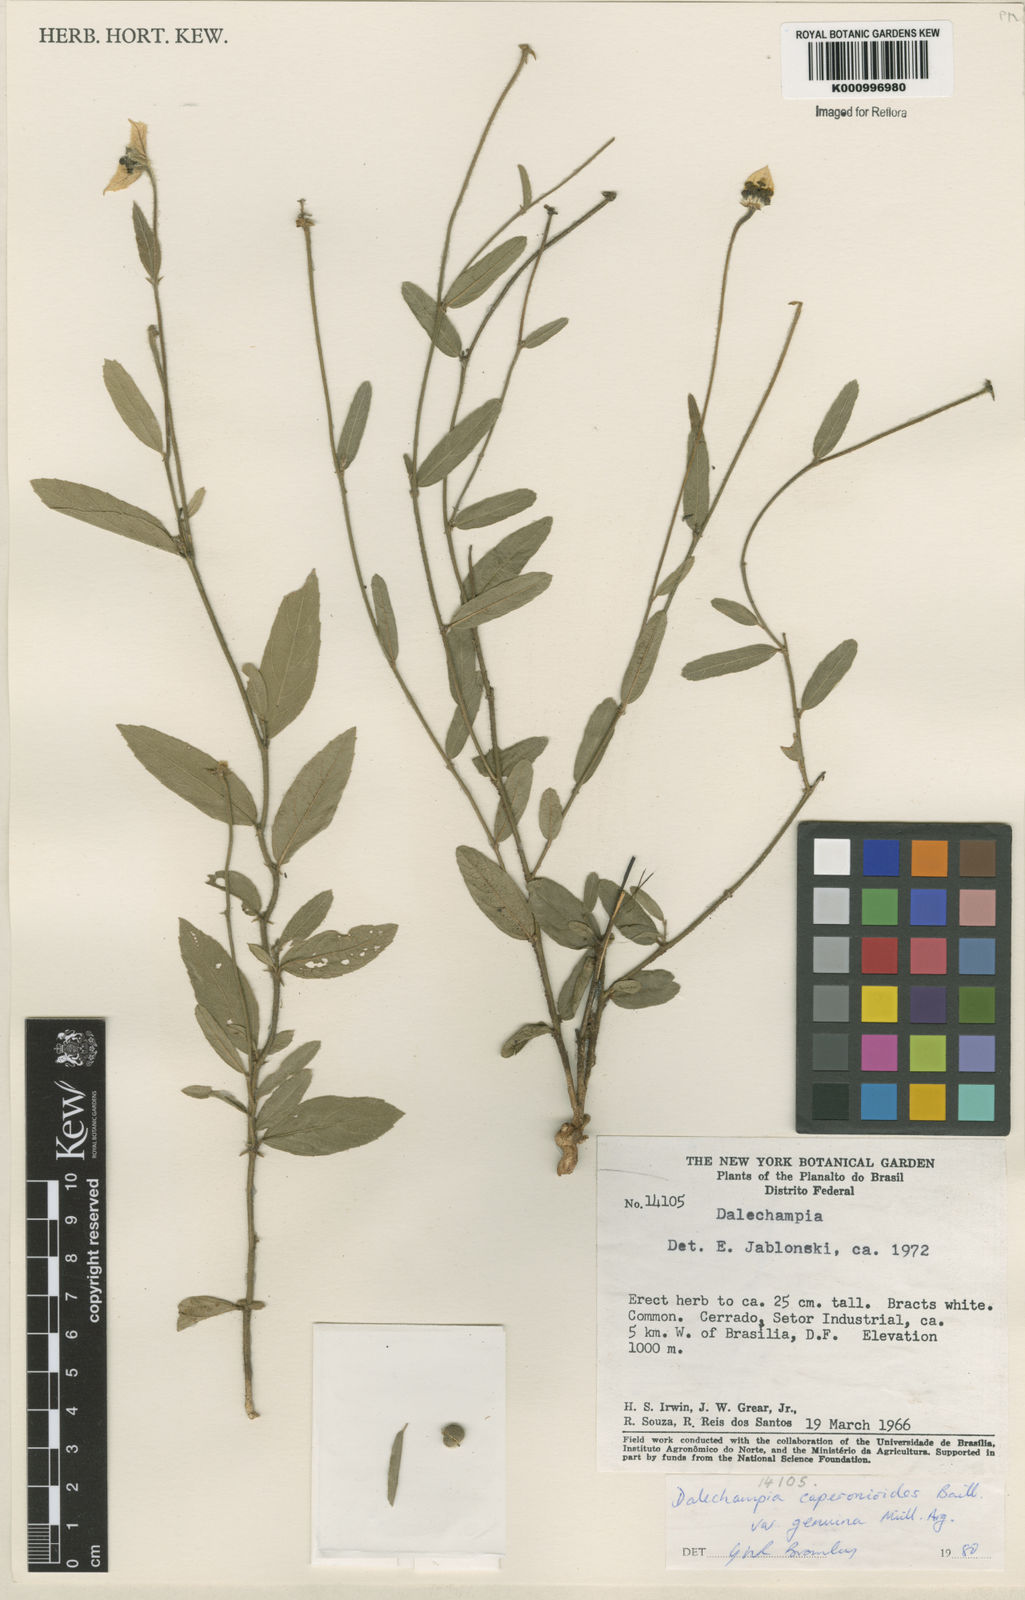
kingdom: Plantae
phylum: Tracheophyta
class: Magnoliopsida
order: Malpighiales
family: Euphorbiaceae
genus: Dalechampia
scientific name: Dalechampia caperonioides
